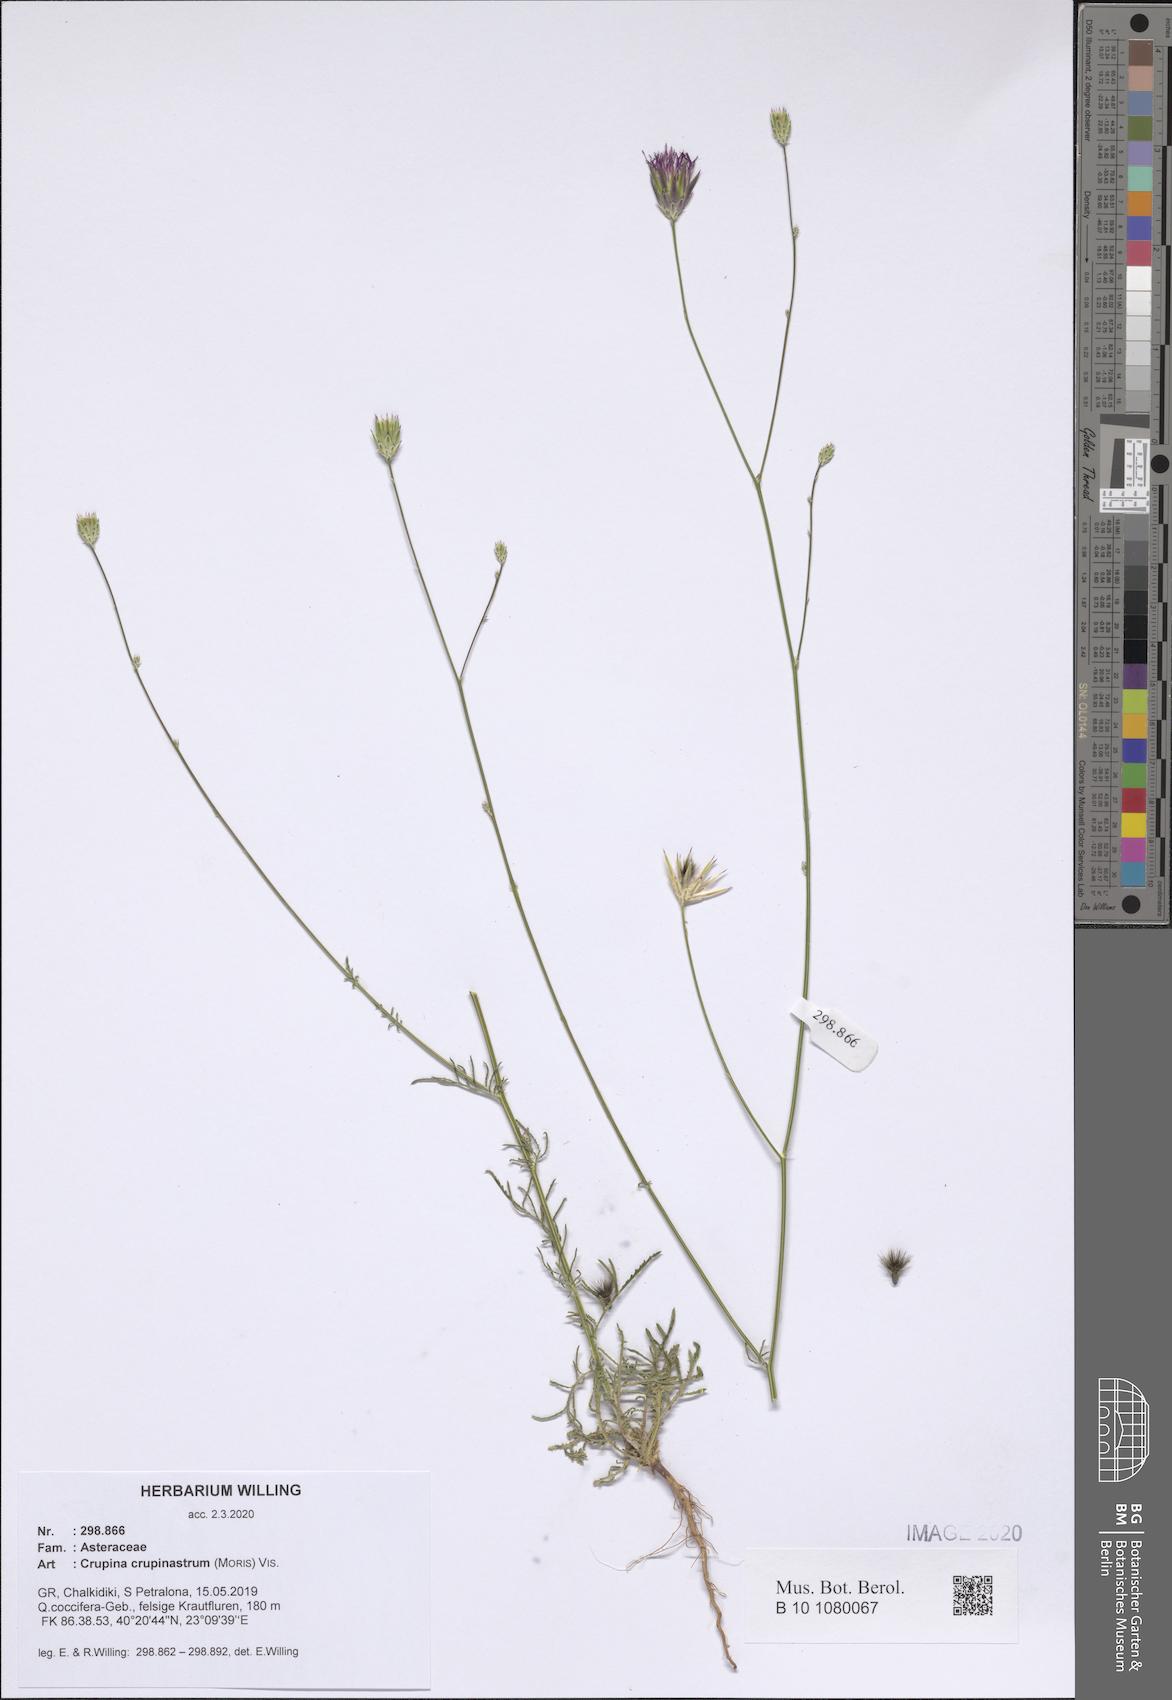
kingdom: Plantae
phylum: Tracheophyta
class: Magnoliopsida
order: Asterales
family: Asteraceae
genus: Crupina
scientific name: Crupina crupinastrum
